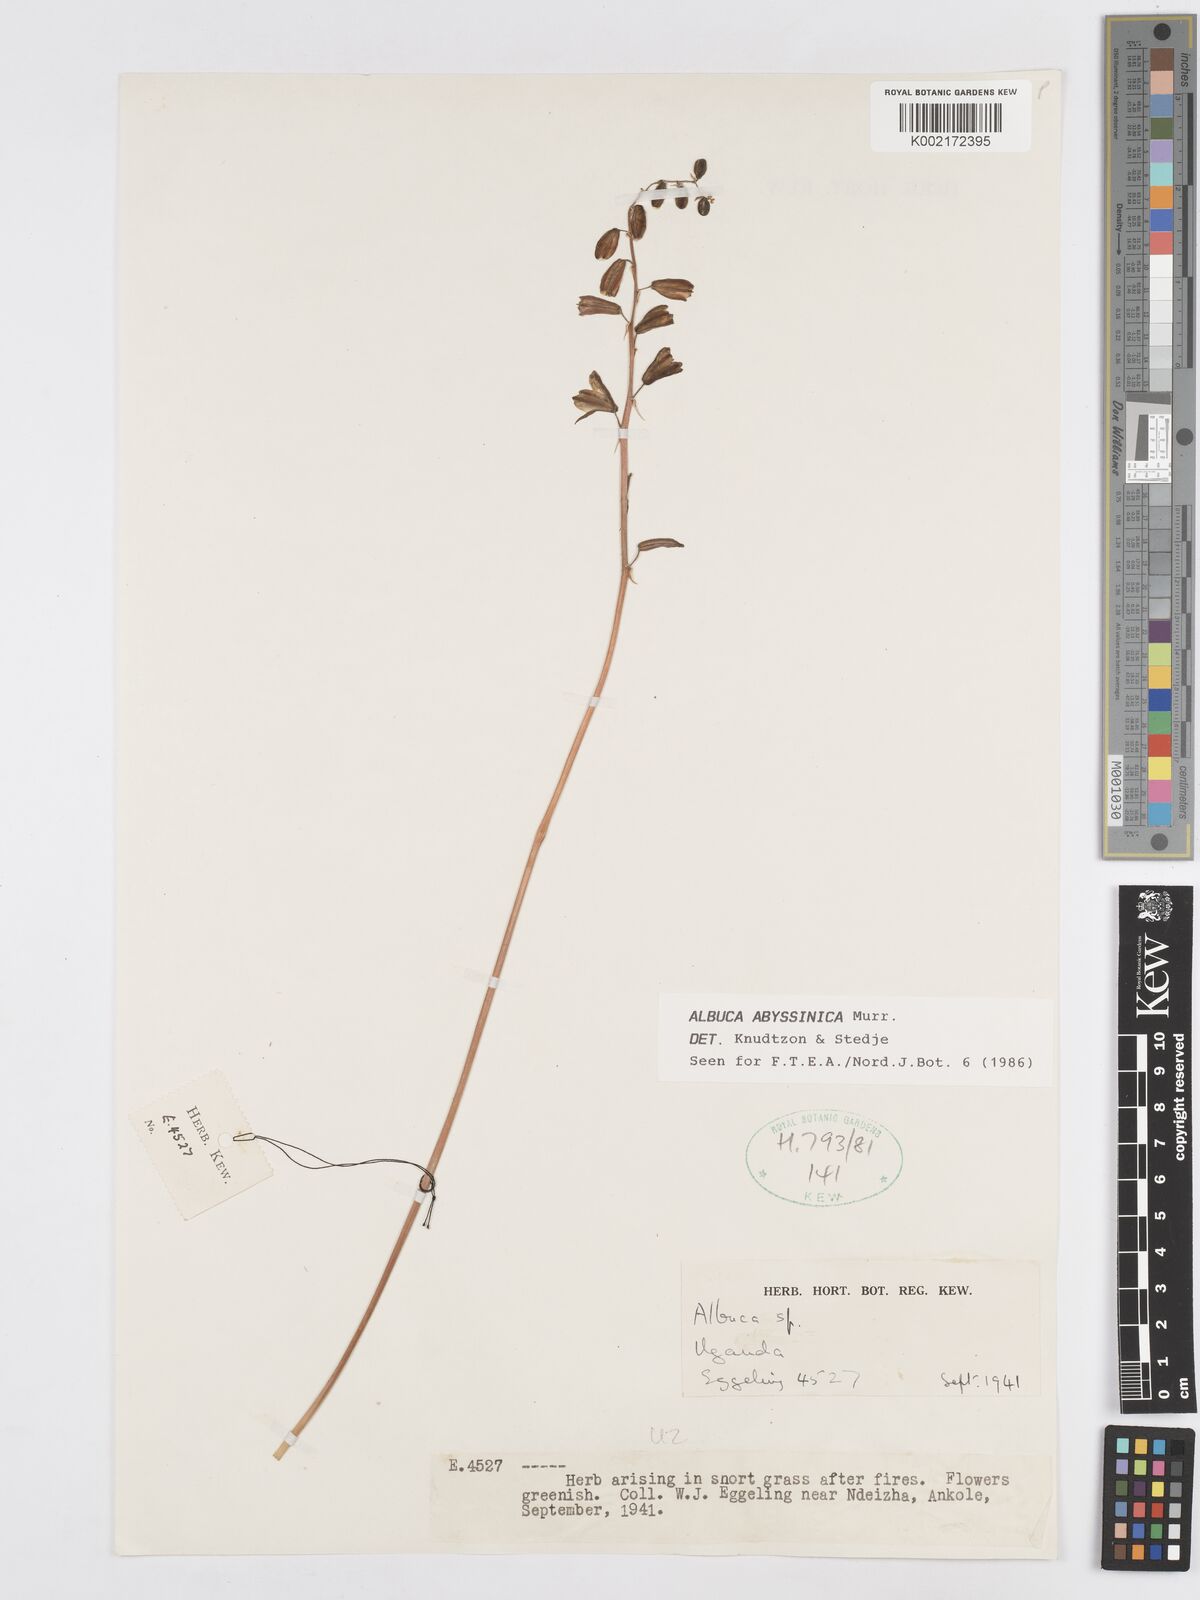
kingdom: Plantae
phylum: Tracheophyta
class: Liliopsida
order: Asparagales
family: Asparagaceae
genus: Albuca
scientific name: Albuca abyssinica
